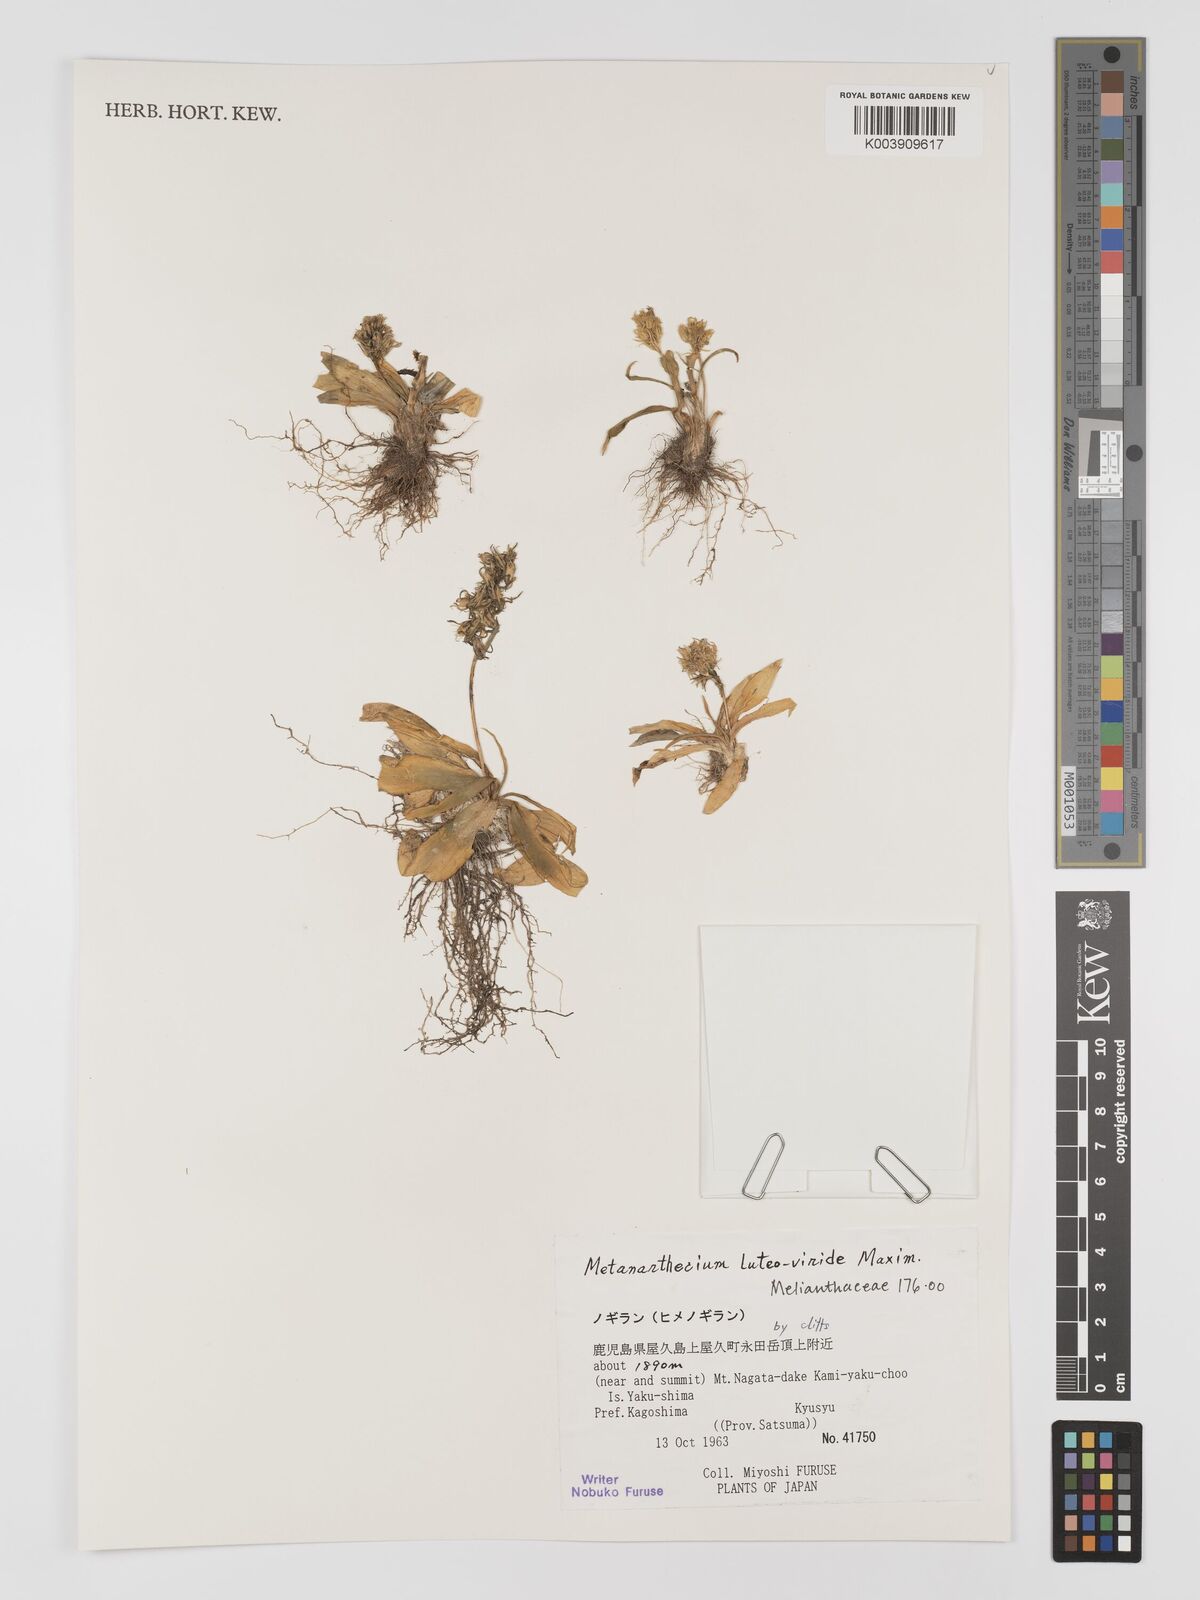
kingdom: Plantae
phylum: Tracheophyta
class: Liliopsida
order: Dioscoreales
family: Nartheciaceae
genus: Metanarthecium
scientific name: Metanarthecium luteoviride
